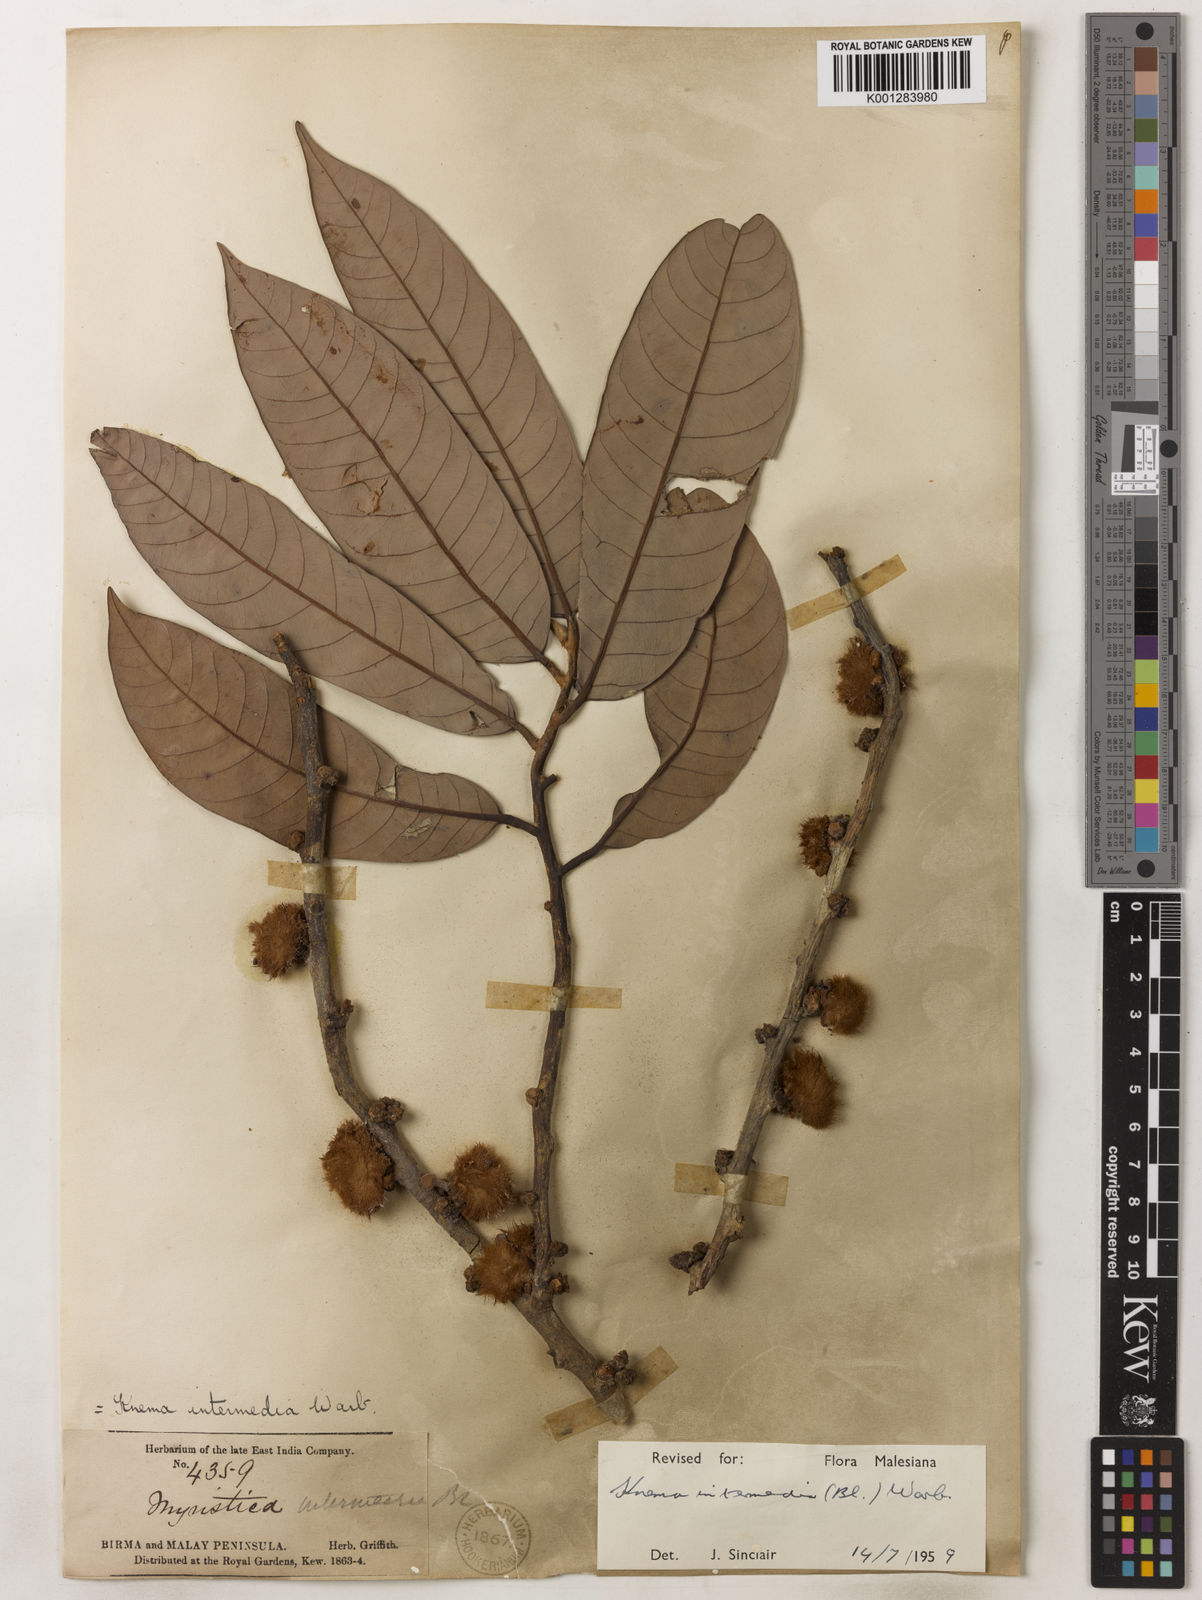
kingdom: Plantae
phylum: Tracheophyta
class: Magnoliopsida
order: Magnoliales
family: Myristicaceae
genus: Knema
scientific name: Knema intermedia
